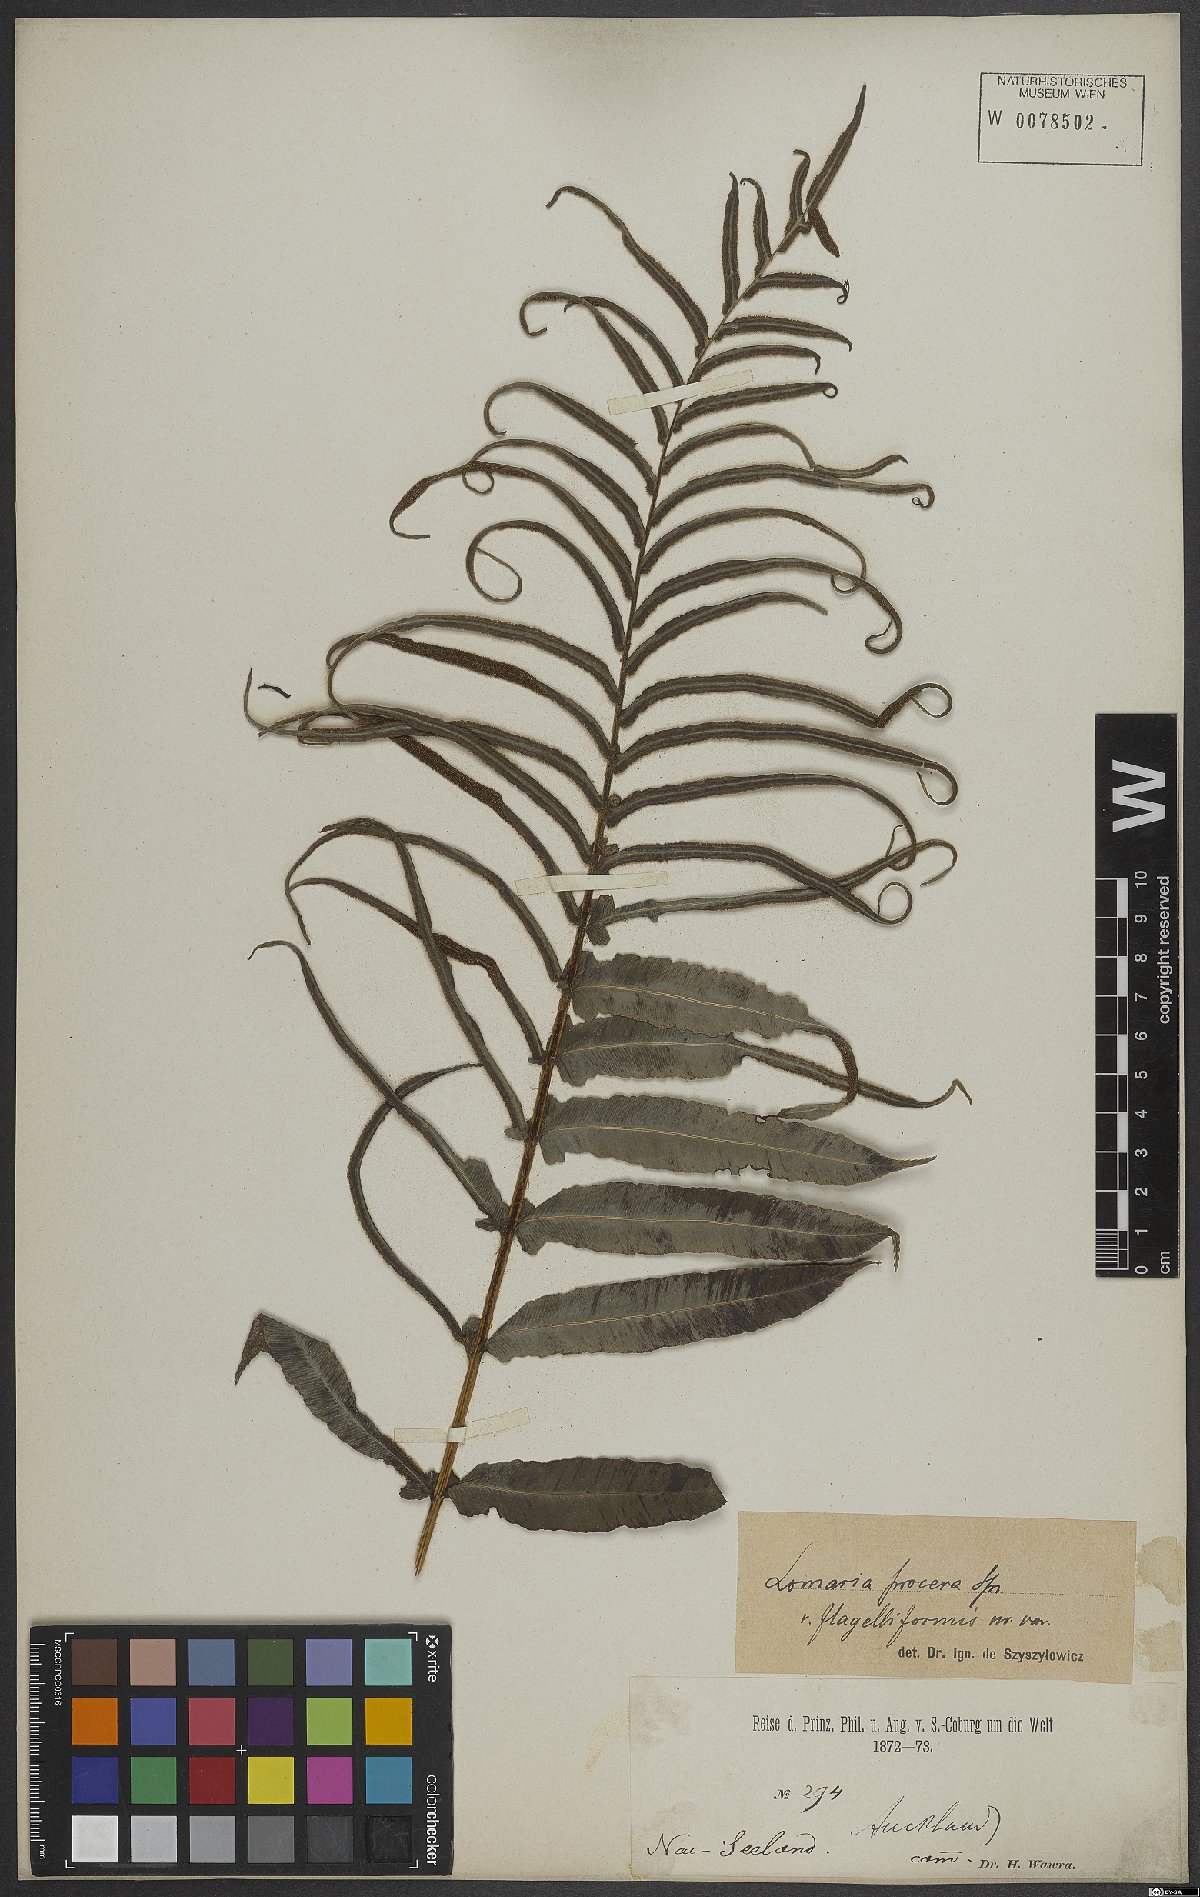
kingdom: Plantae
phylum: Tracheophyta
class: Polypodiopsida
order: Polypodiales
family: Blechnaceae
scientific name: Blechnaceae
